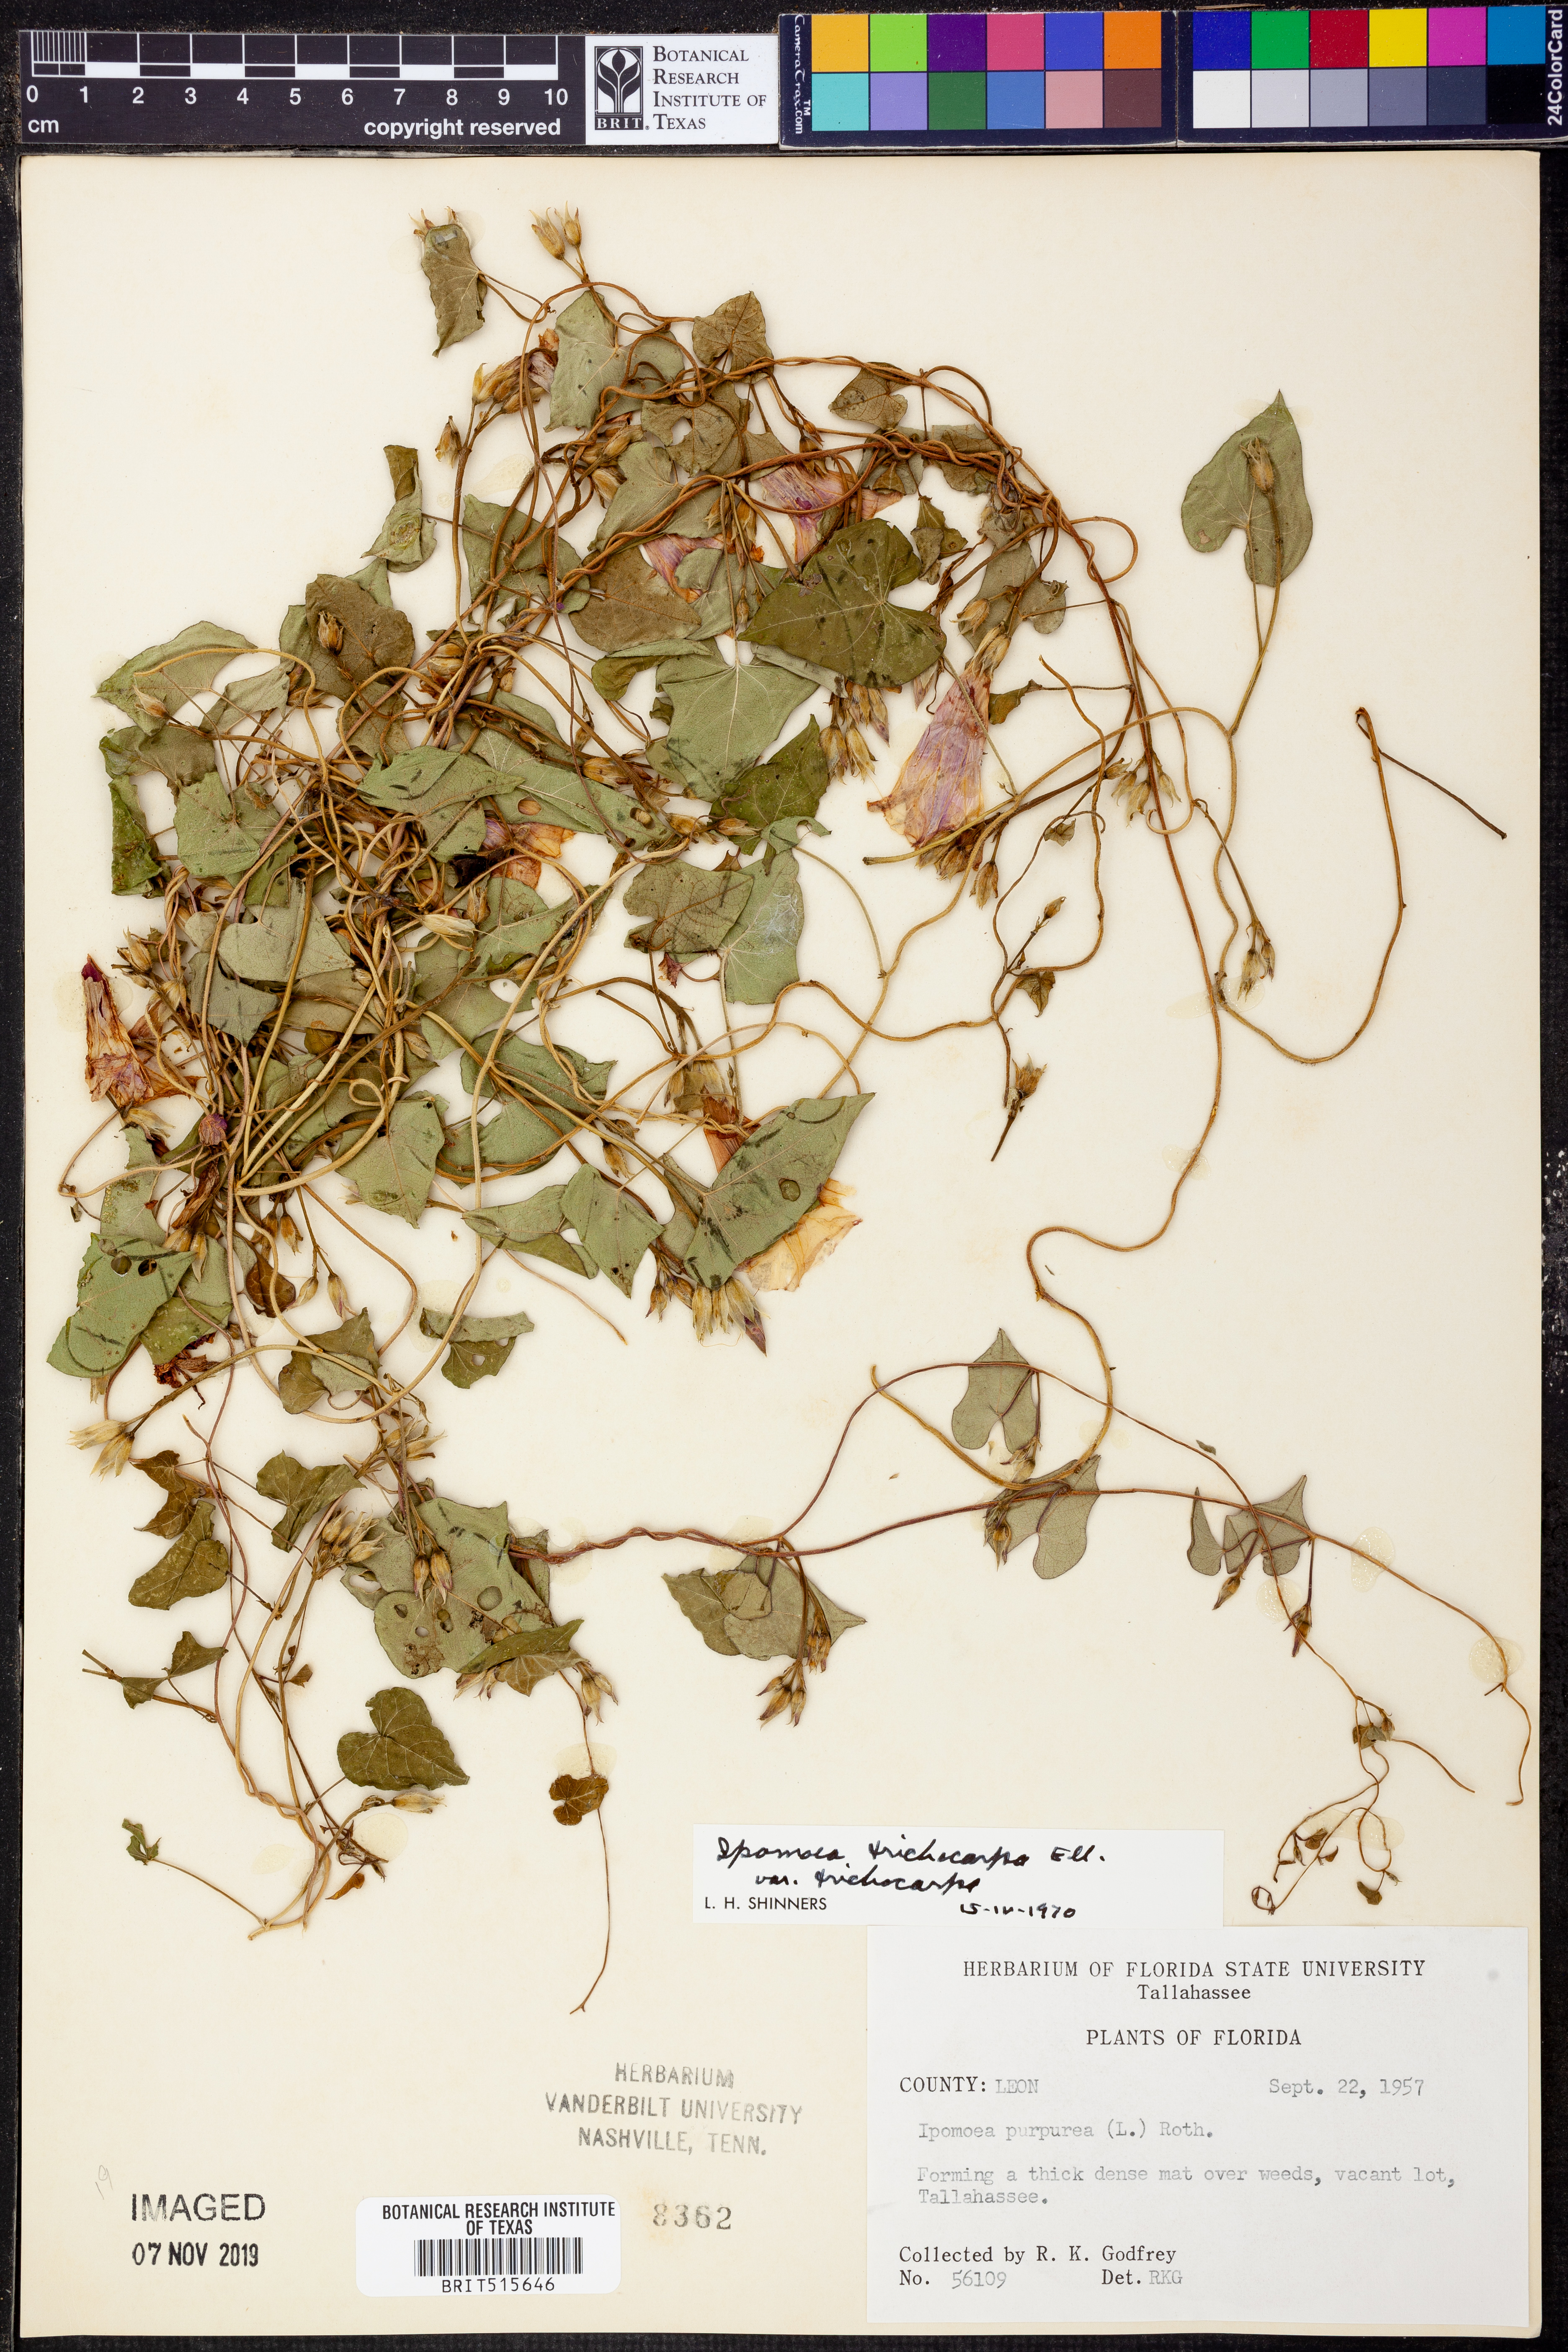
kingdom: Plantae
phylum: Tracheophyta
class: Magnoliopsida
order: Solanales
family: Convolvulaceae
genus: Ipomoea
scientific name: Ipomoea cordatotriloba
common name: Cotton morning glory
